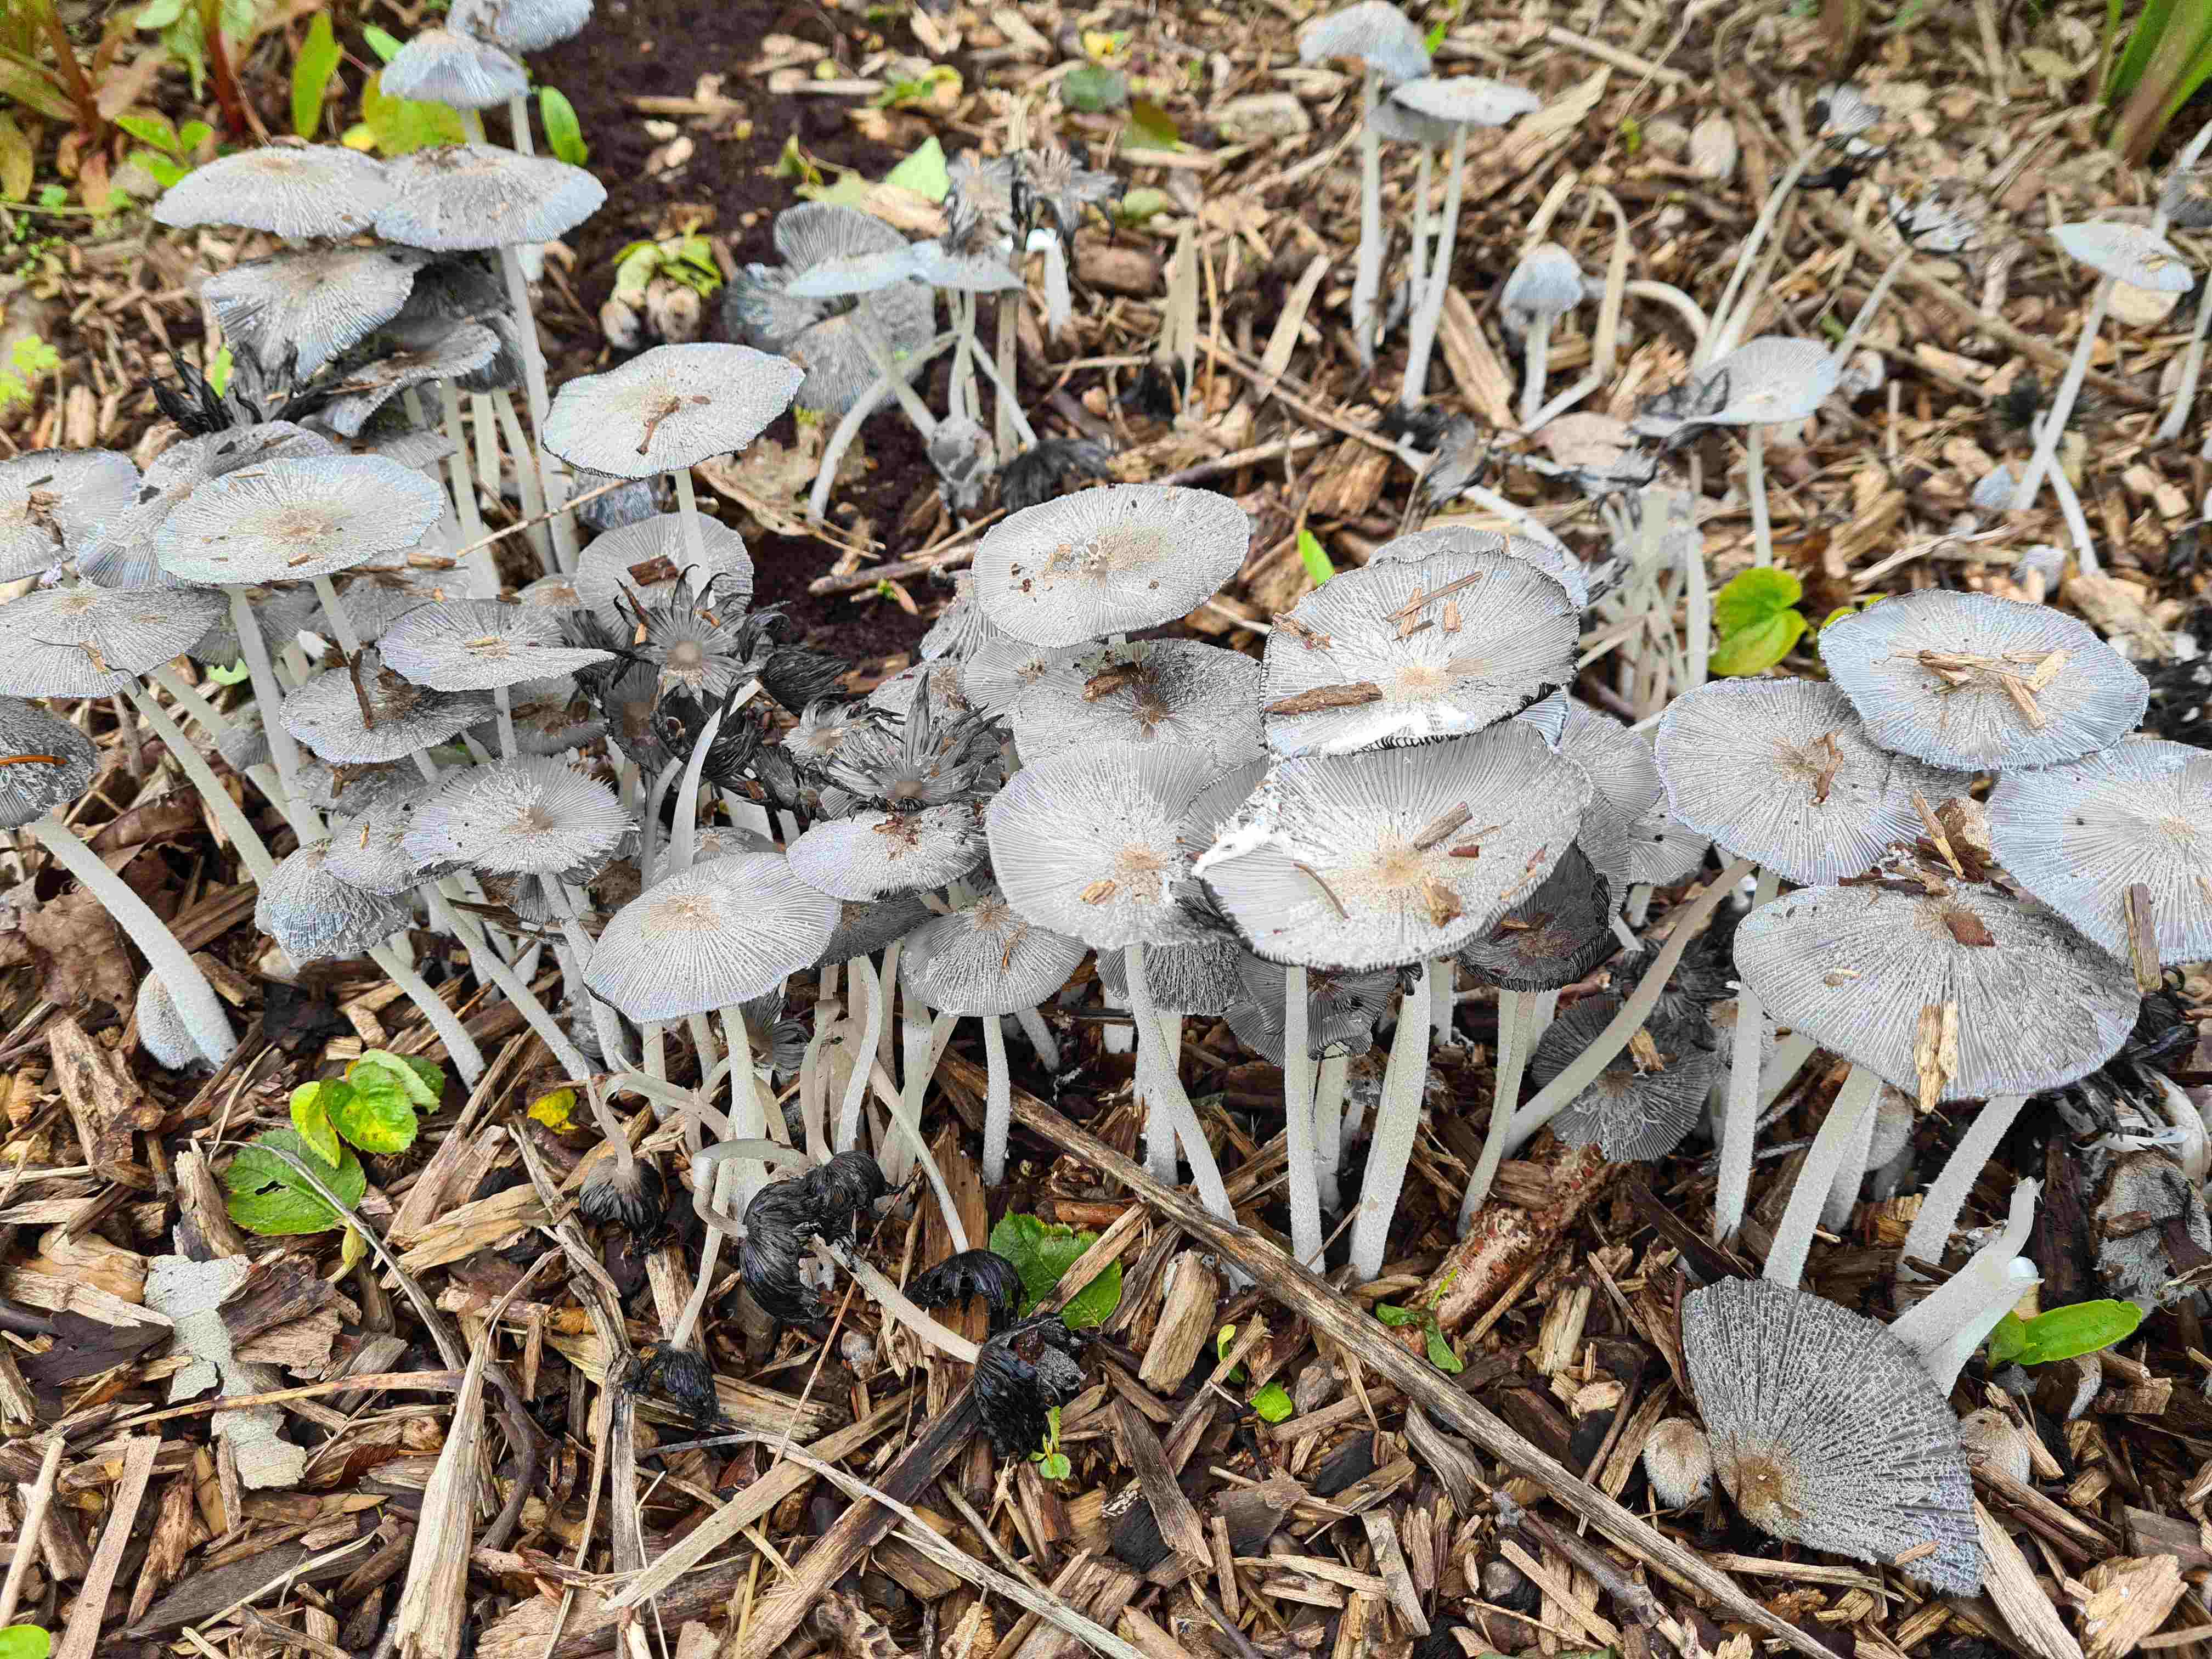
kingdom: Fungi
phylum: Basidiomycota
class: Agaricomycetes
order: Agaricales
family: Psathyrellaceae
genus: Coprinopsis
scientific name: Coprinopsis lagopus
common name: dunstokket blækhat
